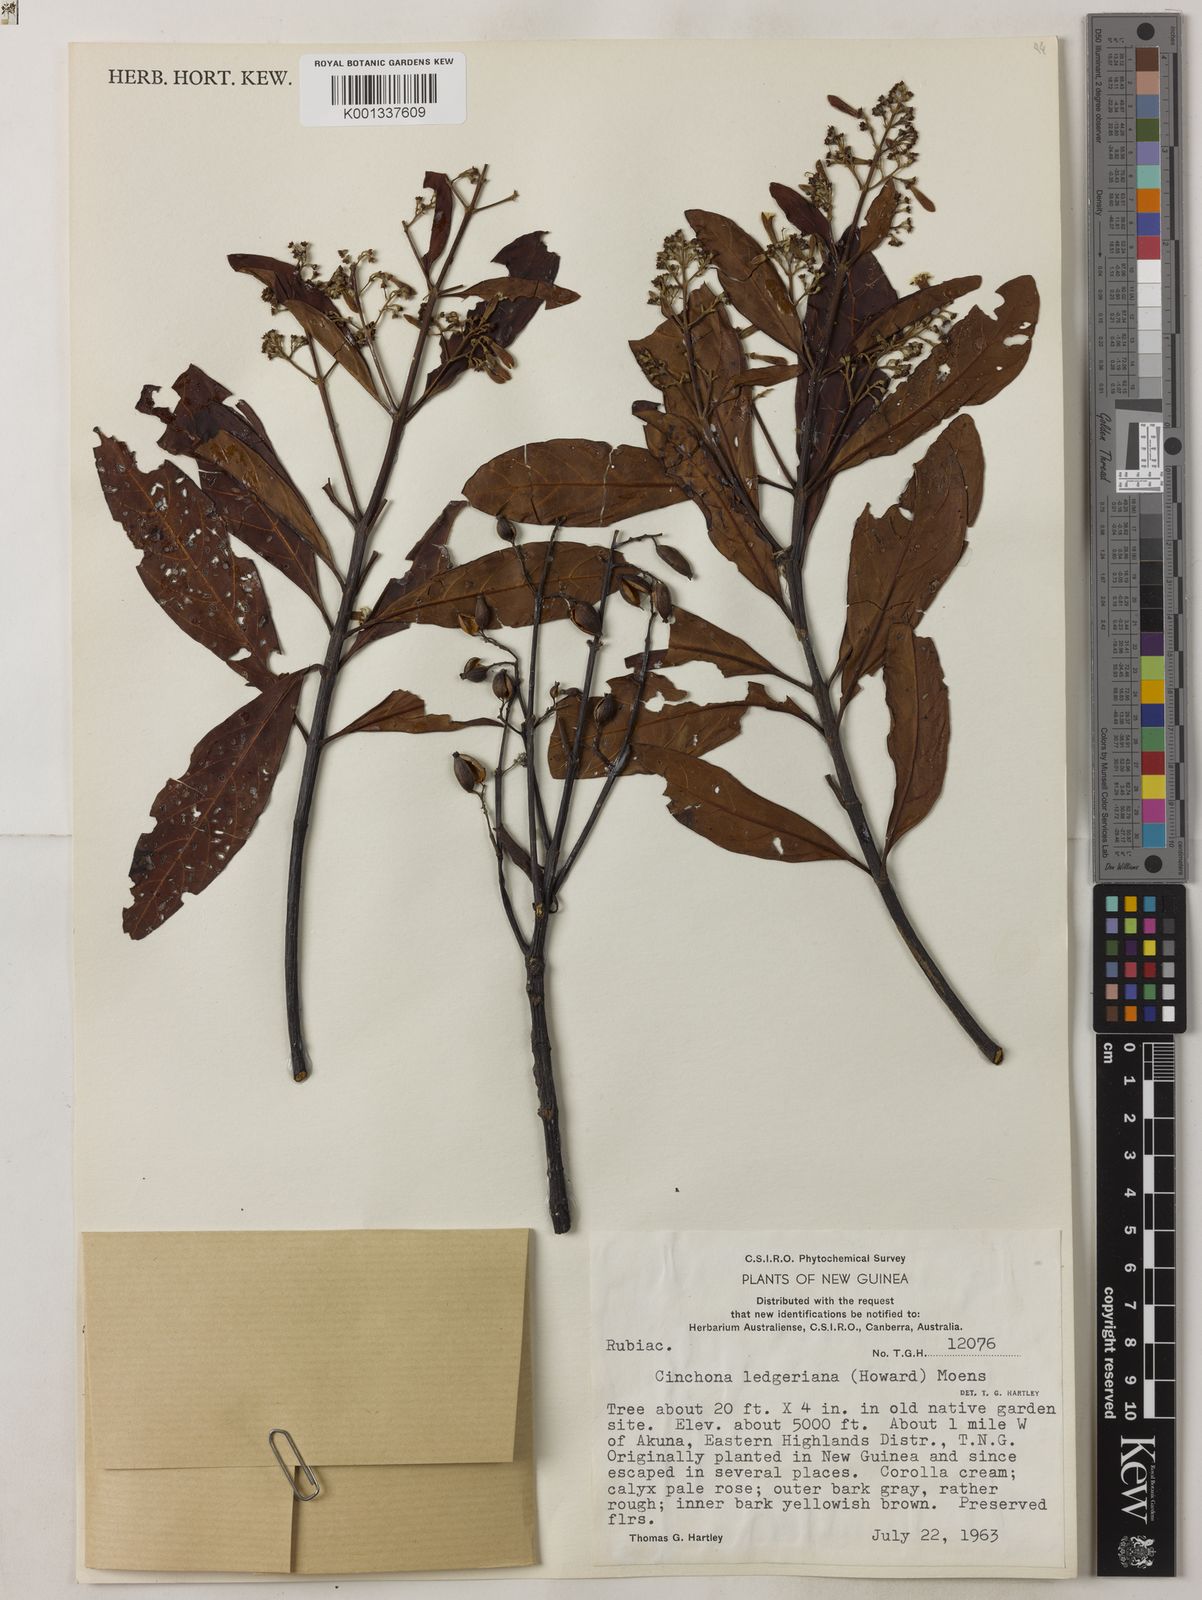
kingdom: Plantae
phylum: Tracheophyta
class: Magnoliopsida
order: Gentianales
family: Rubiaceae
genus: Cinchona
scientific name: Cinchona calisaya
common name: Ledgerbark
